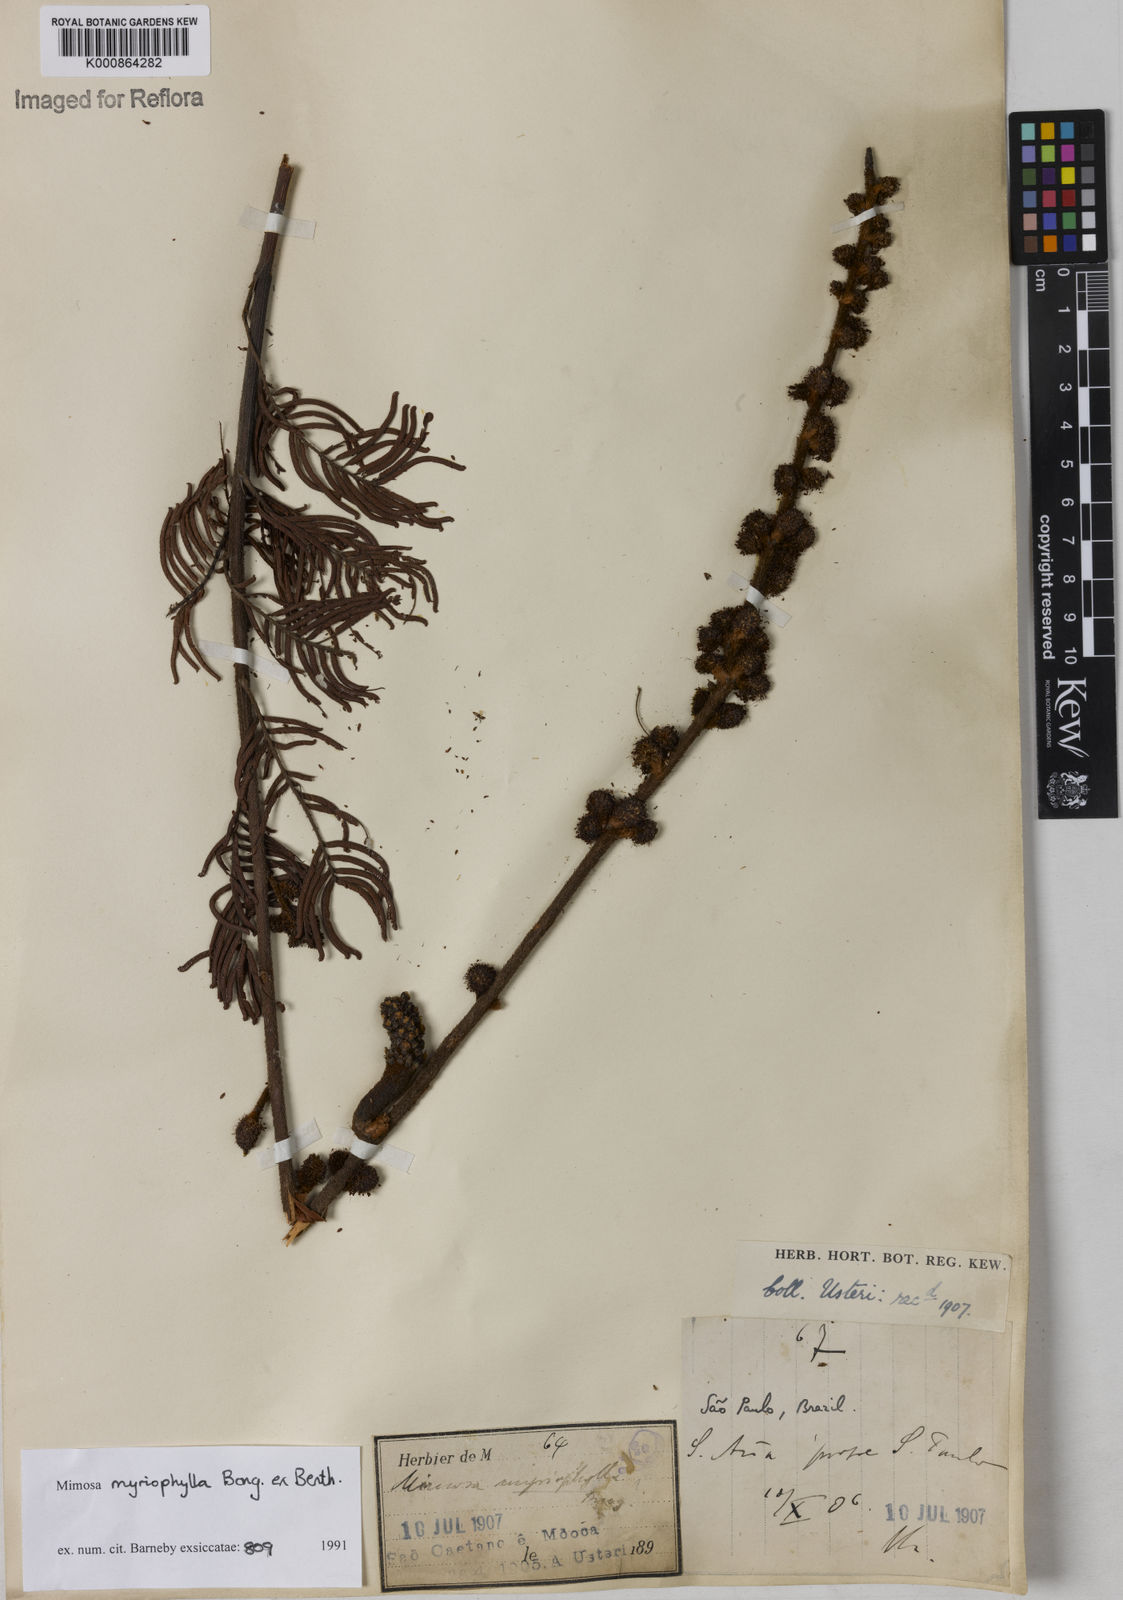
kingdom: Plantae
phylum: Tracheophyta
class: Magnoliopsida
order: Fabales
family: Fabaceae
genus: Mimosa
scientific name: Mimosa
